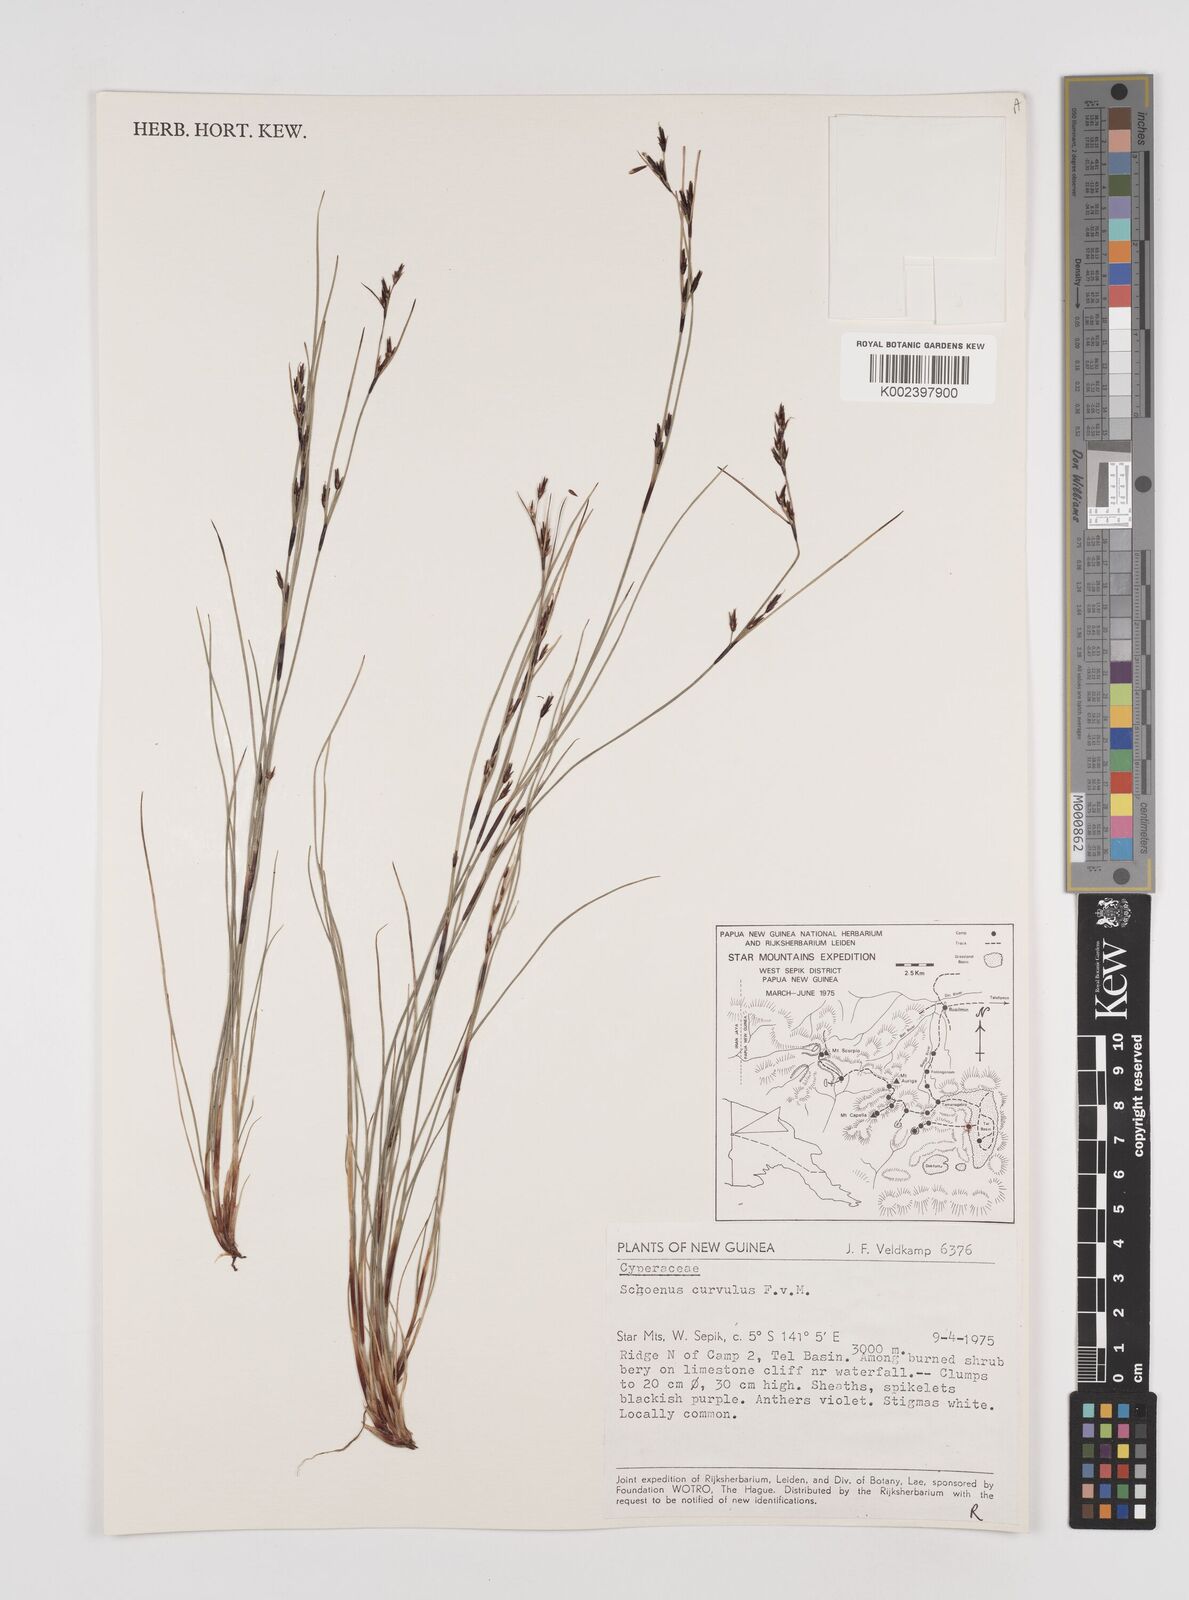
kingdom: Plantae
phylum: Tracheophyta
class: Liliopsida
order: Poales
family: Cyperaceae
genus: Schoenus
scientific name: Schoenus curvulus
